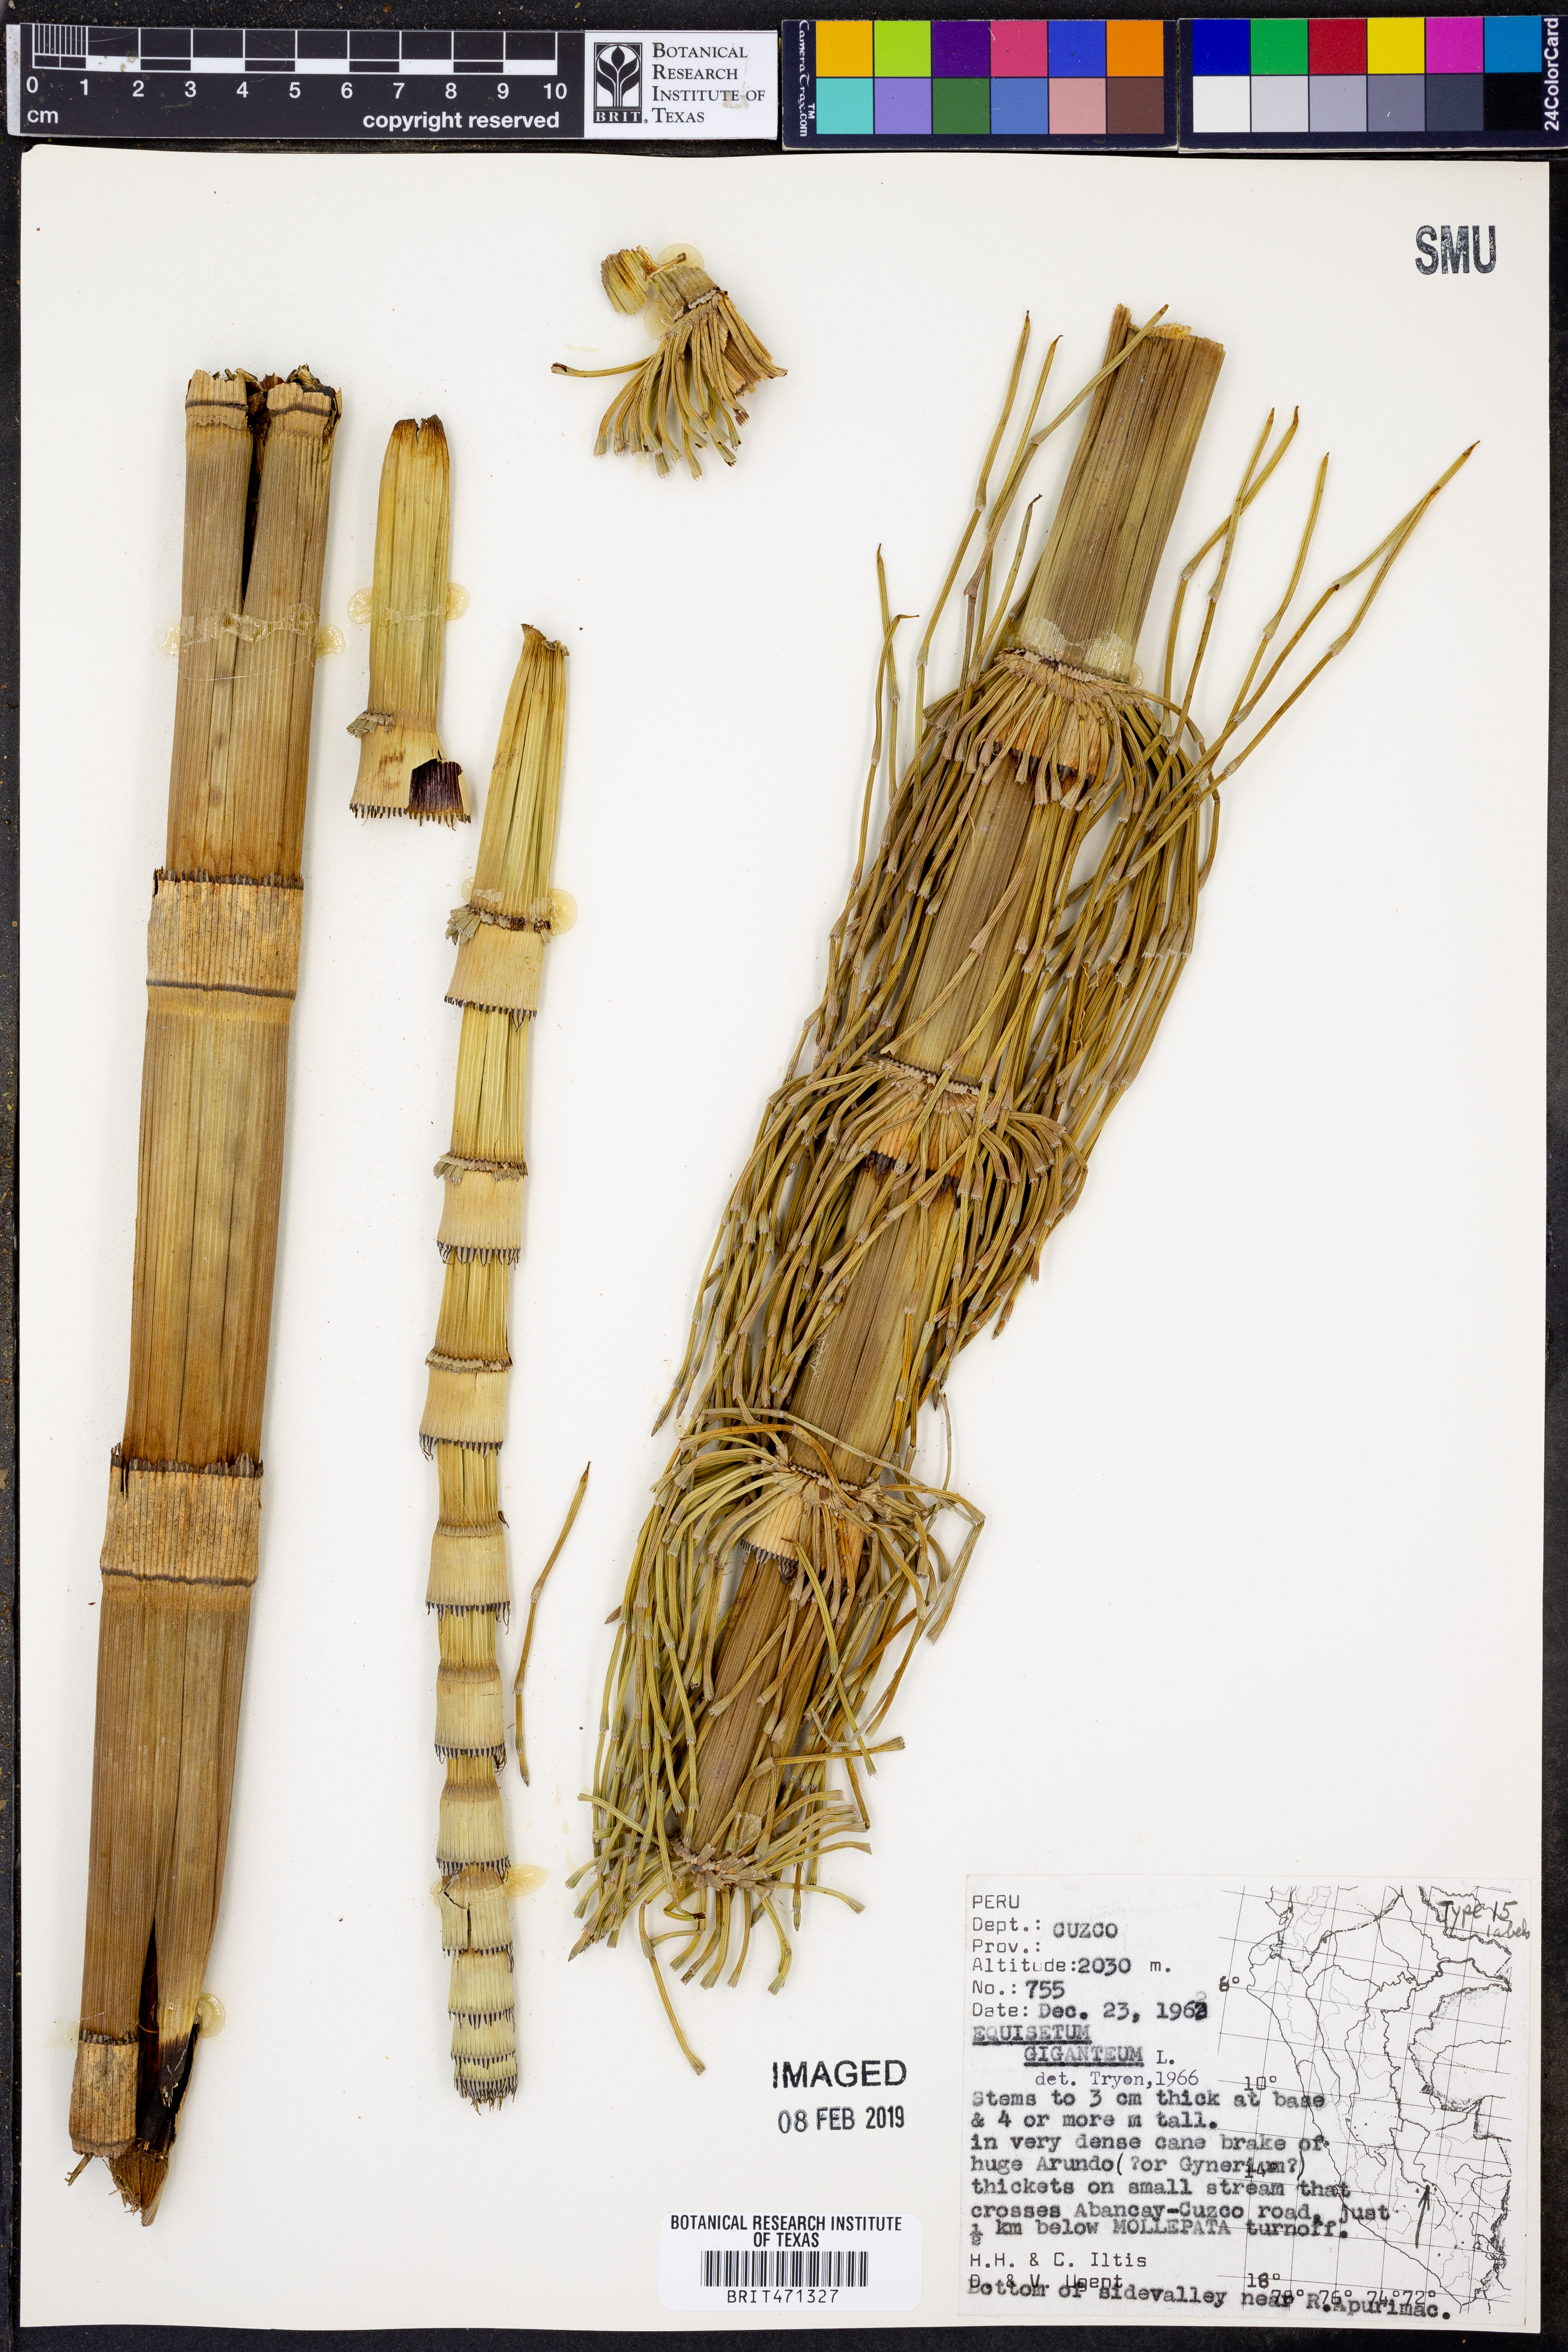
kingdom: Plantae
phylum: Tracheophyta
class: Polypodiopsida
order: Equisetales
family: Equisetaceae
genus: Equisetum
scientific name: Equisetum giganteum
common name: Giant horsetail
